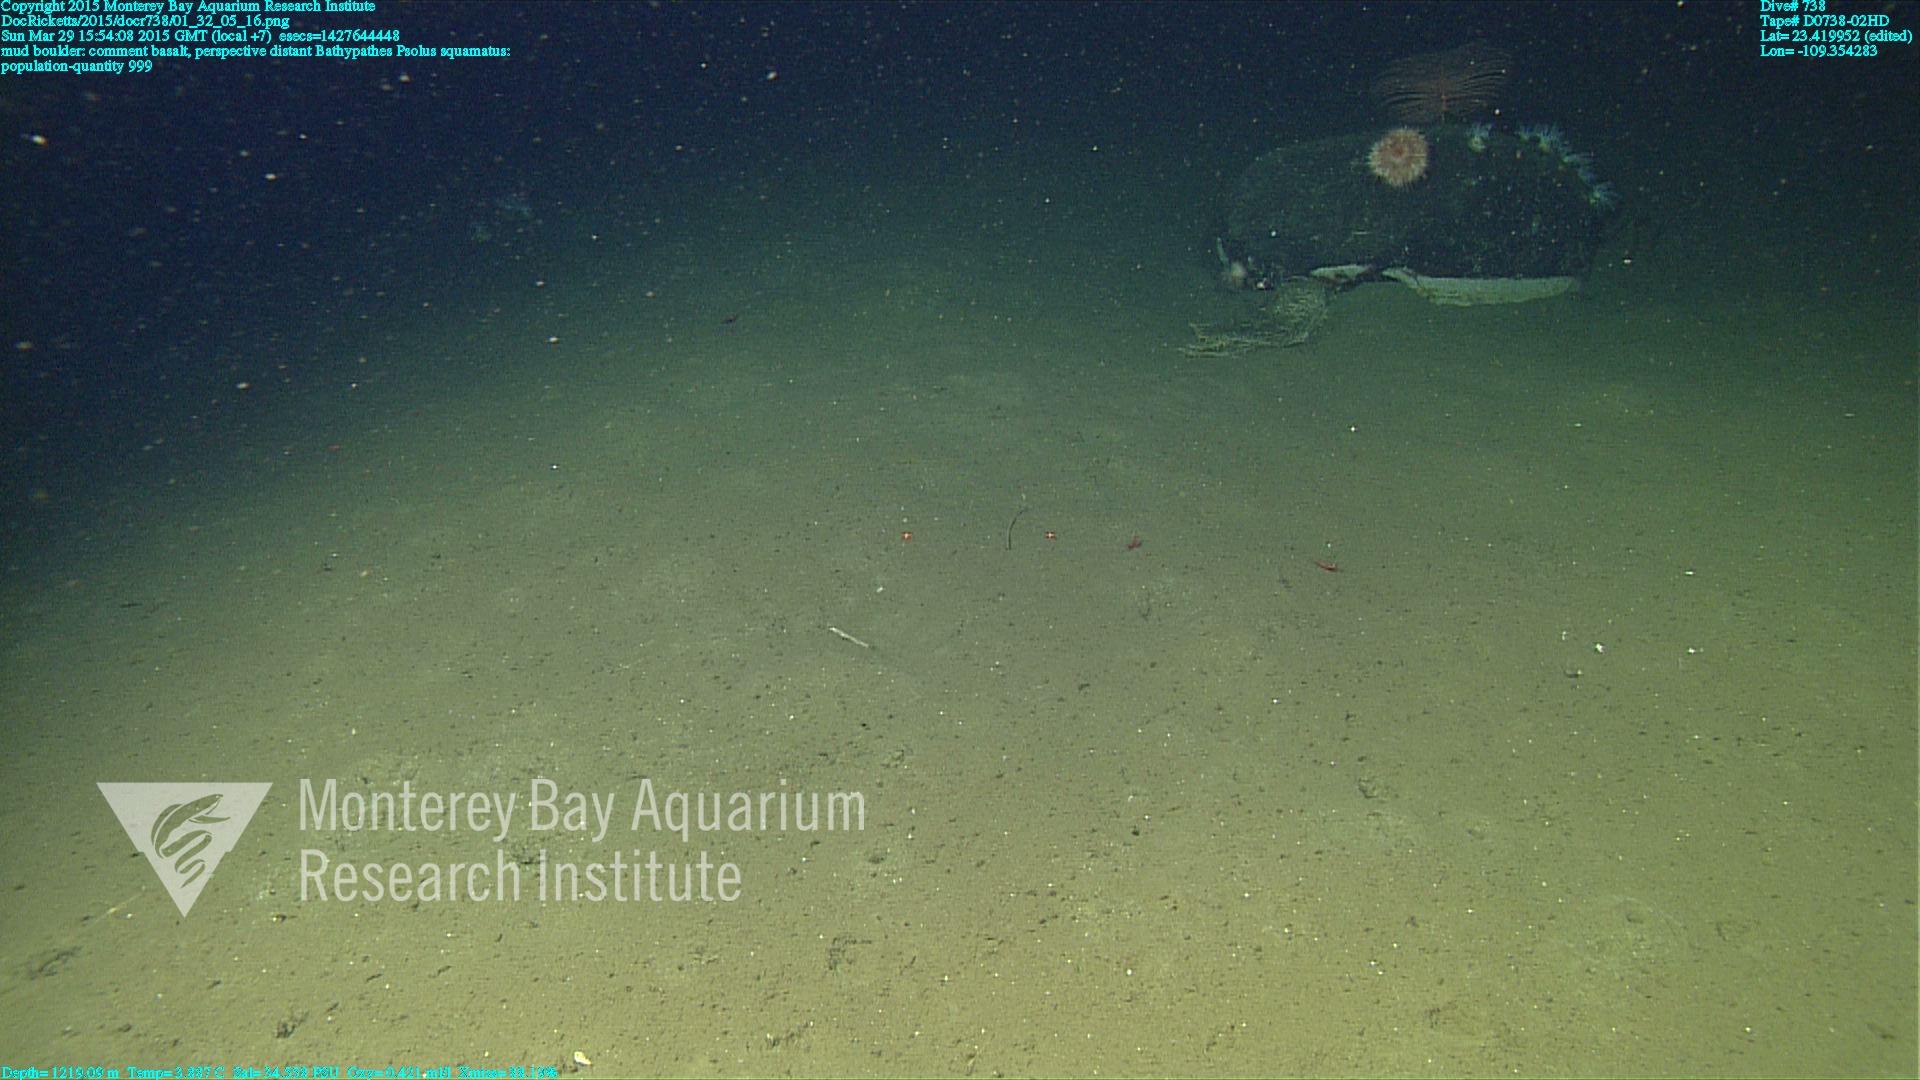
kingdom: Animalia
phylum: Cnidaria
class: Anthozoa
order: Antipatharia
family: Schizopathidae
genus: Bathypathes
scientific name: Bathypathes
